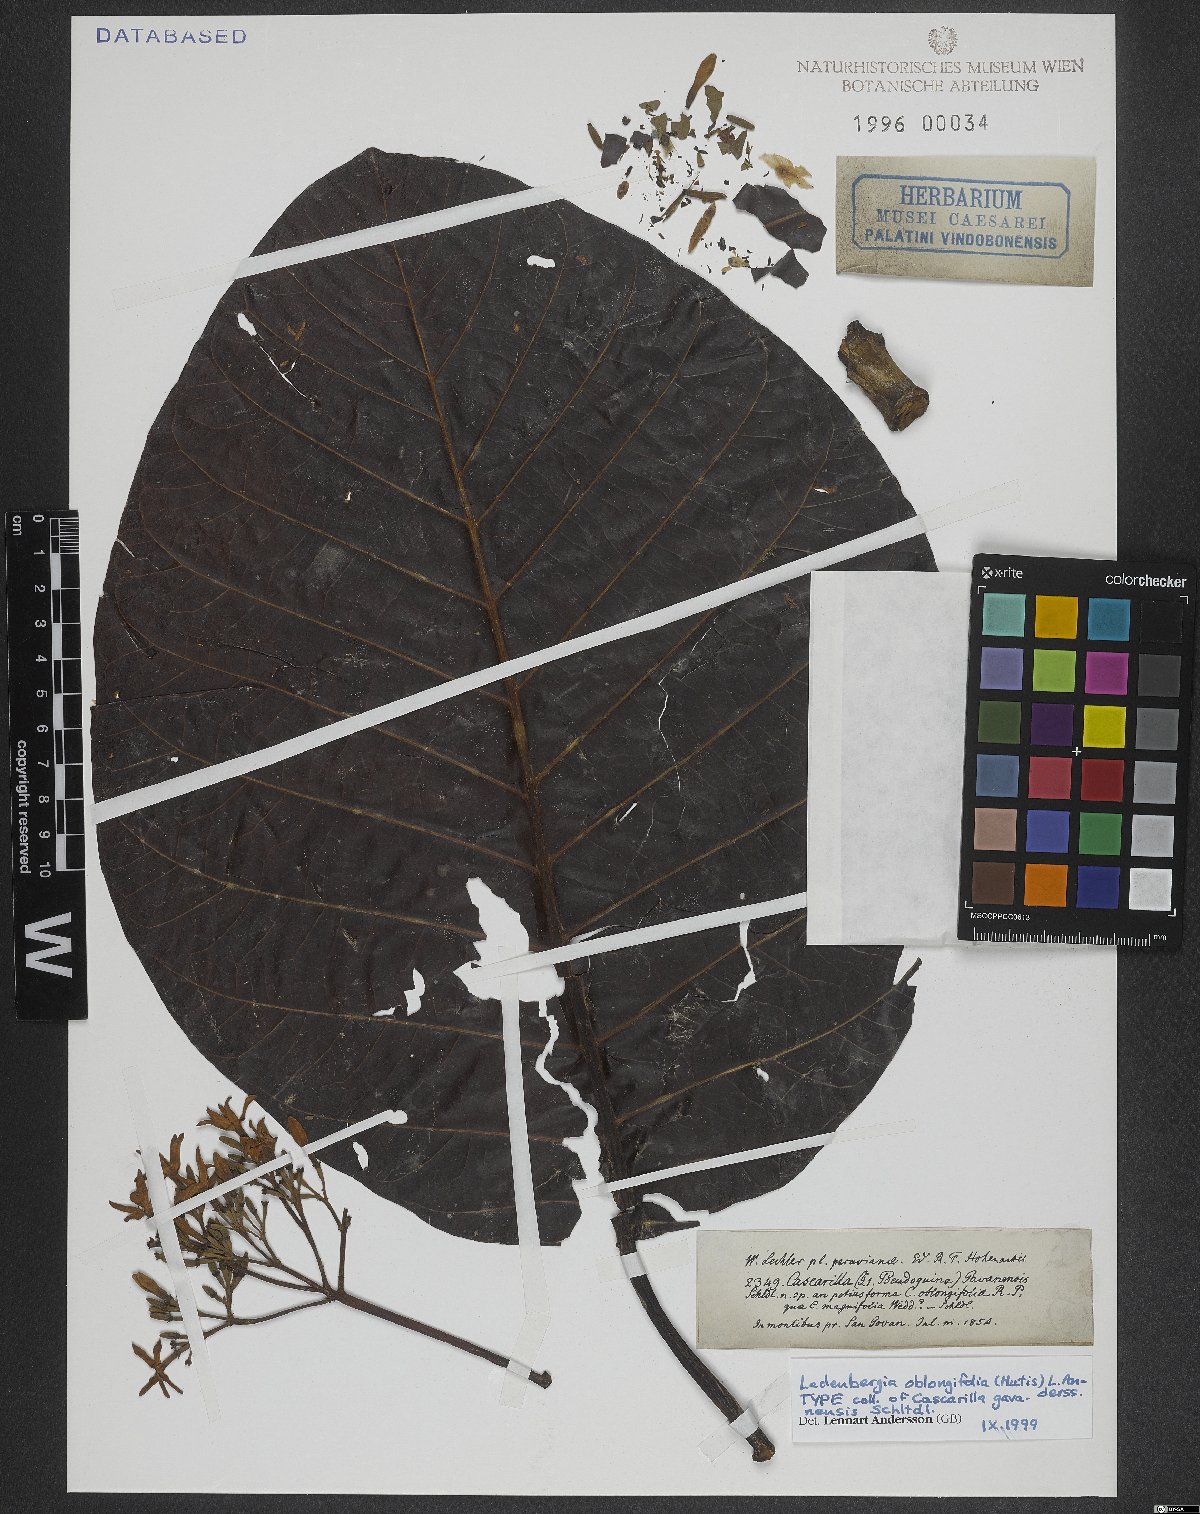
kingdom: Plantae
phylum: Tracheophyta
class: Magnoliopsida
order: Gentianales
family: Rubiaceae
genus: Ladenbergia
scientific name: Ladenbergia oblongifolia
